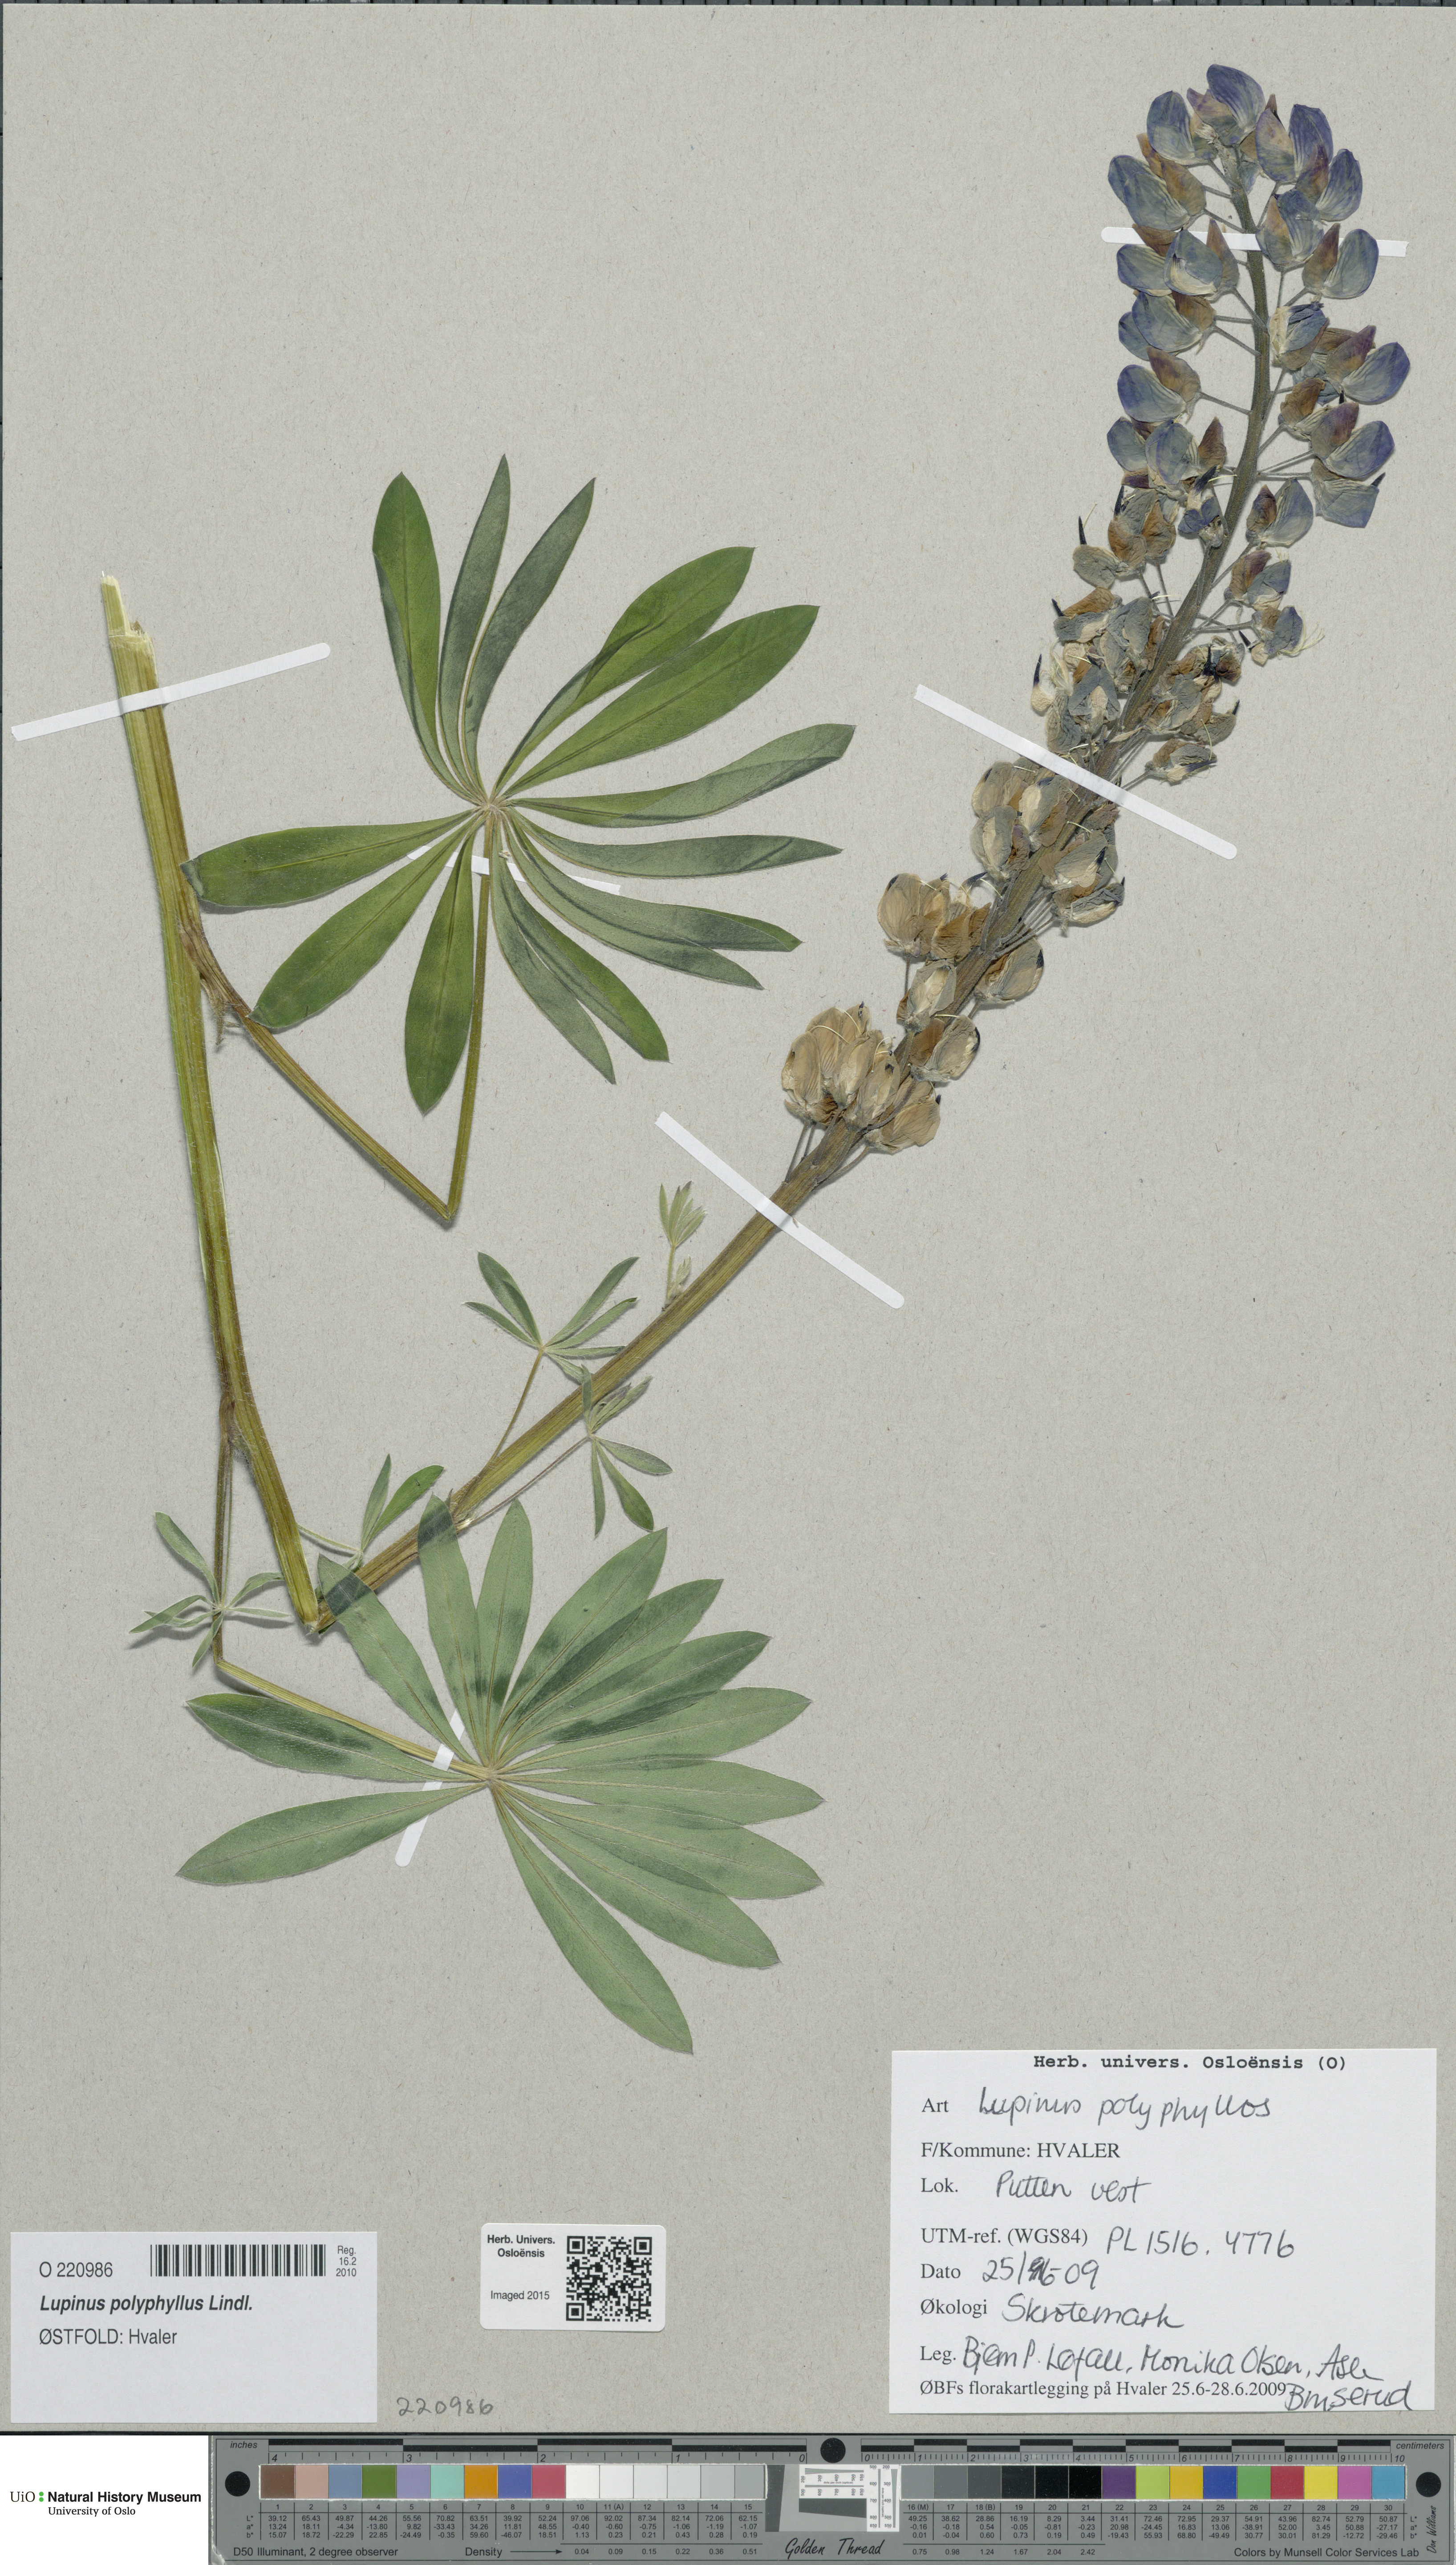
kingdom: Plantae
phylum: Tracheophyta
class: Magnoliopsida
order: Fabales
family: Fabaceae
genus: Lupinus
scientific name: Lupinus polyphyllus
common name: Garden lupin
